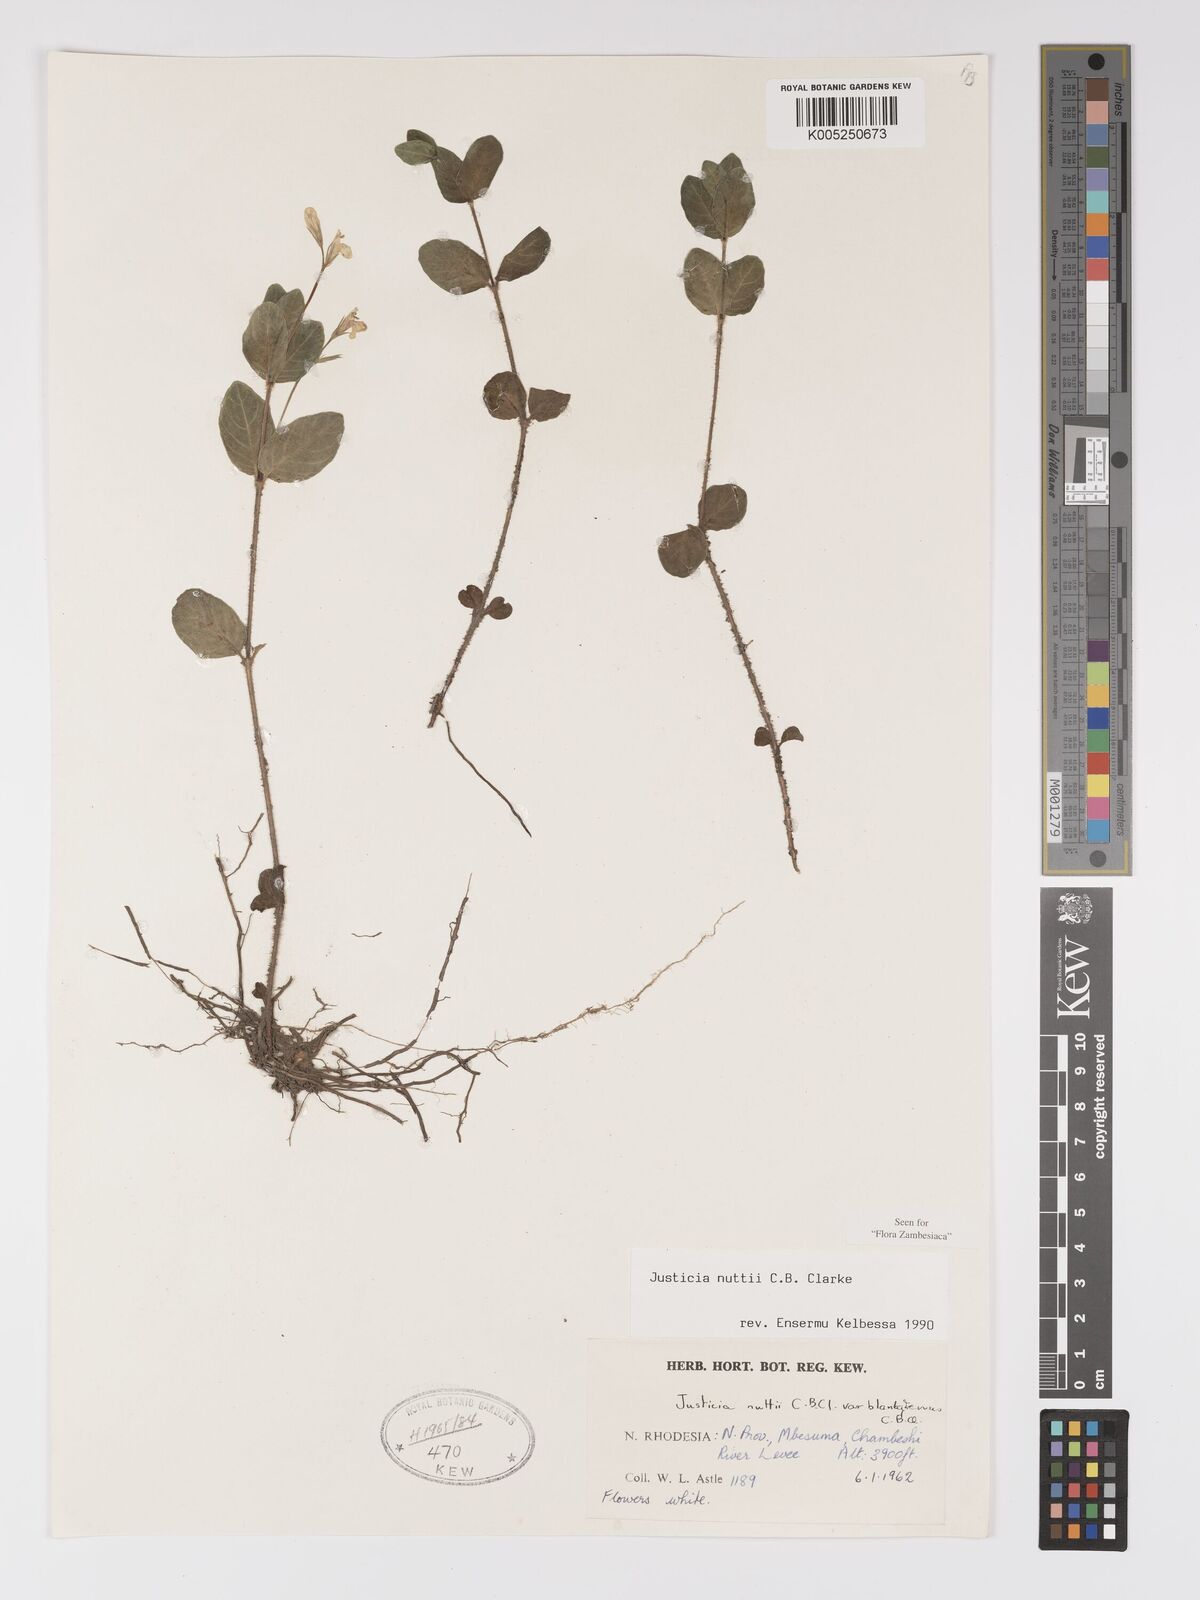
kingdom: Plantae
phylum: Tracheophyta
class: Magnoliopsida
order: Lamiales
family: Acanthaceae
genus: Justicia
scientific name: Justicia nuttii
